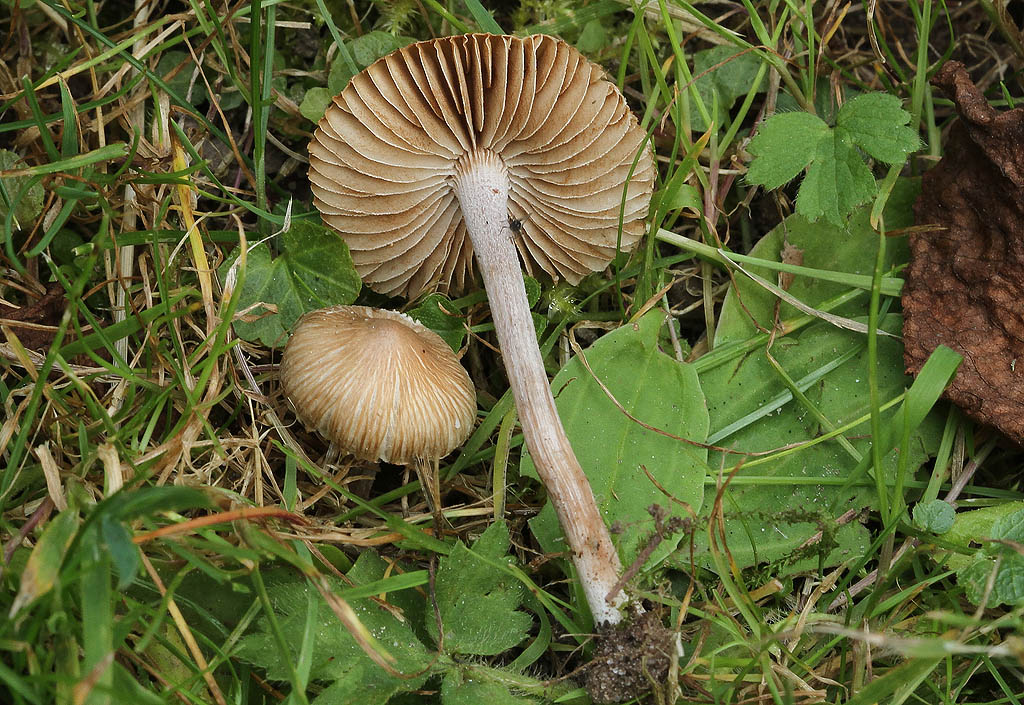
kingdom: Fungi
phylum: Basidiomycota
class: Agaricomycetes
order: Agaricales
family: Inocybaceae
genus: Inocybe
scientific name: Inocybe putilla
